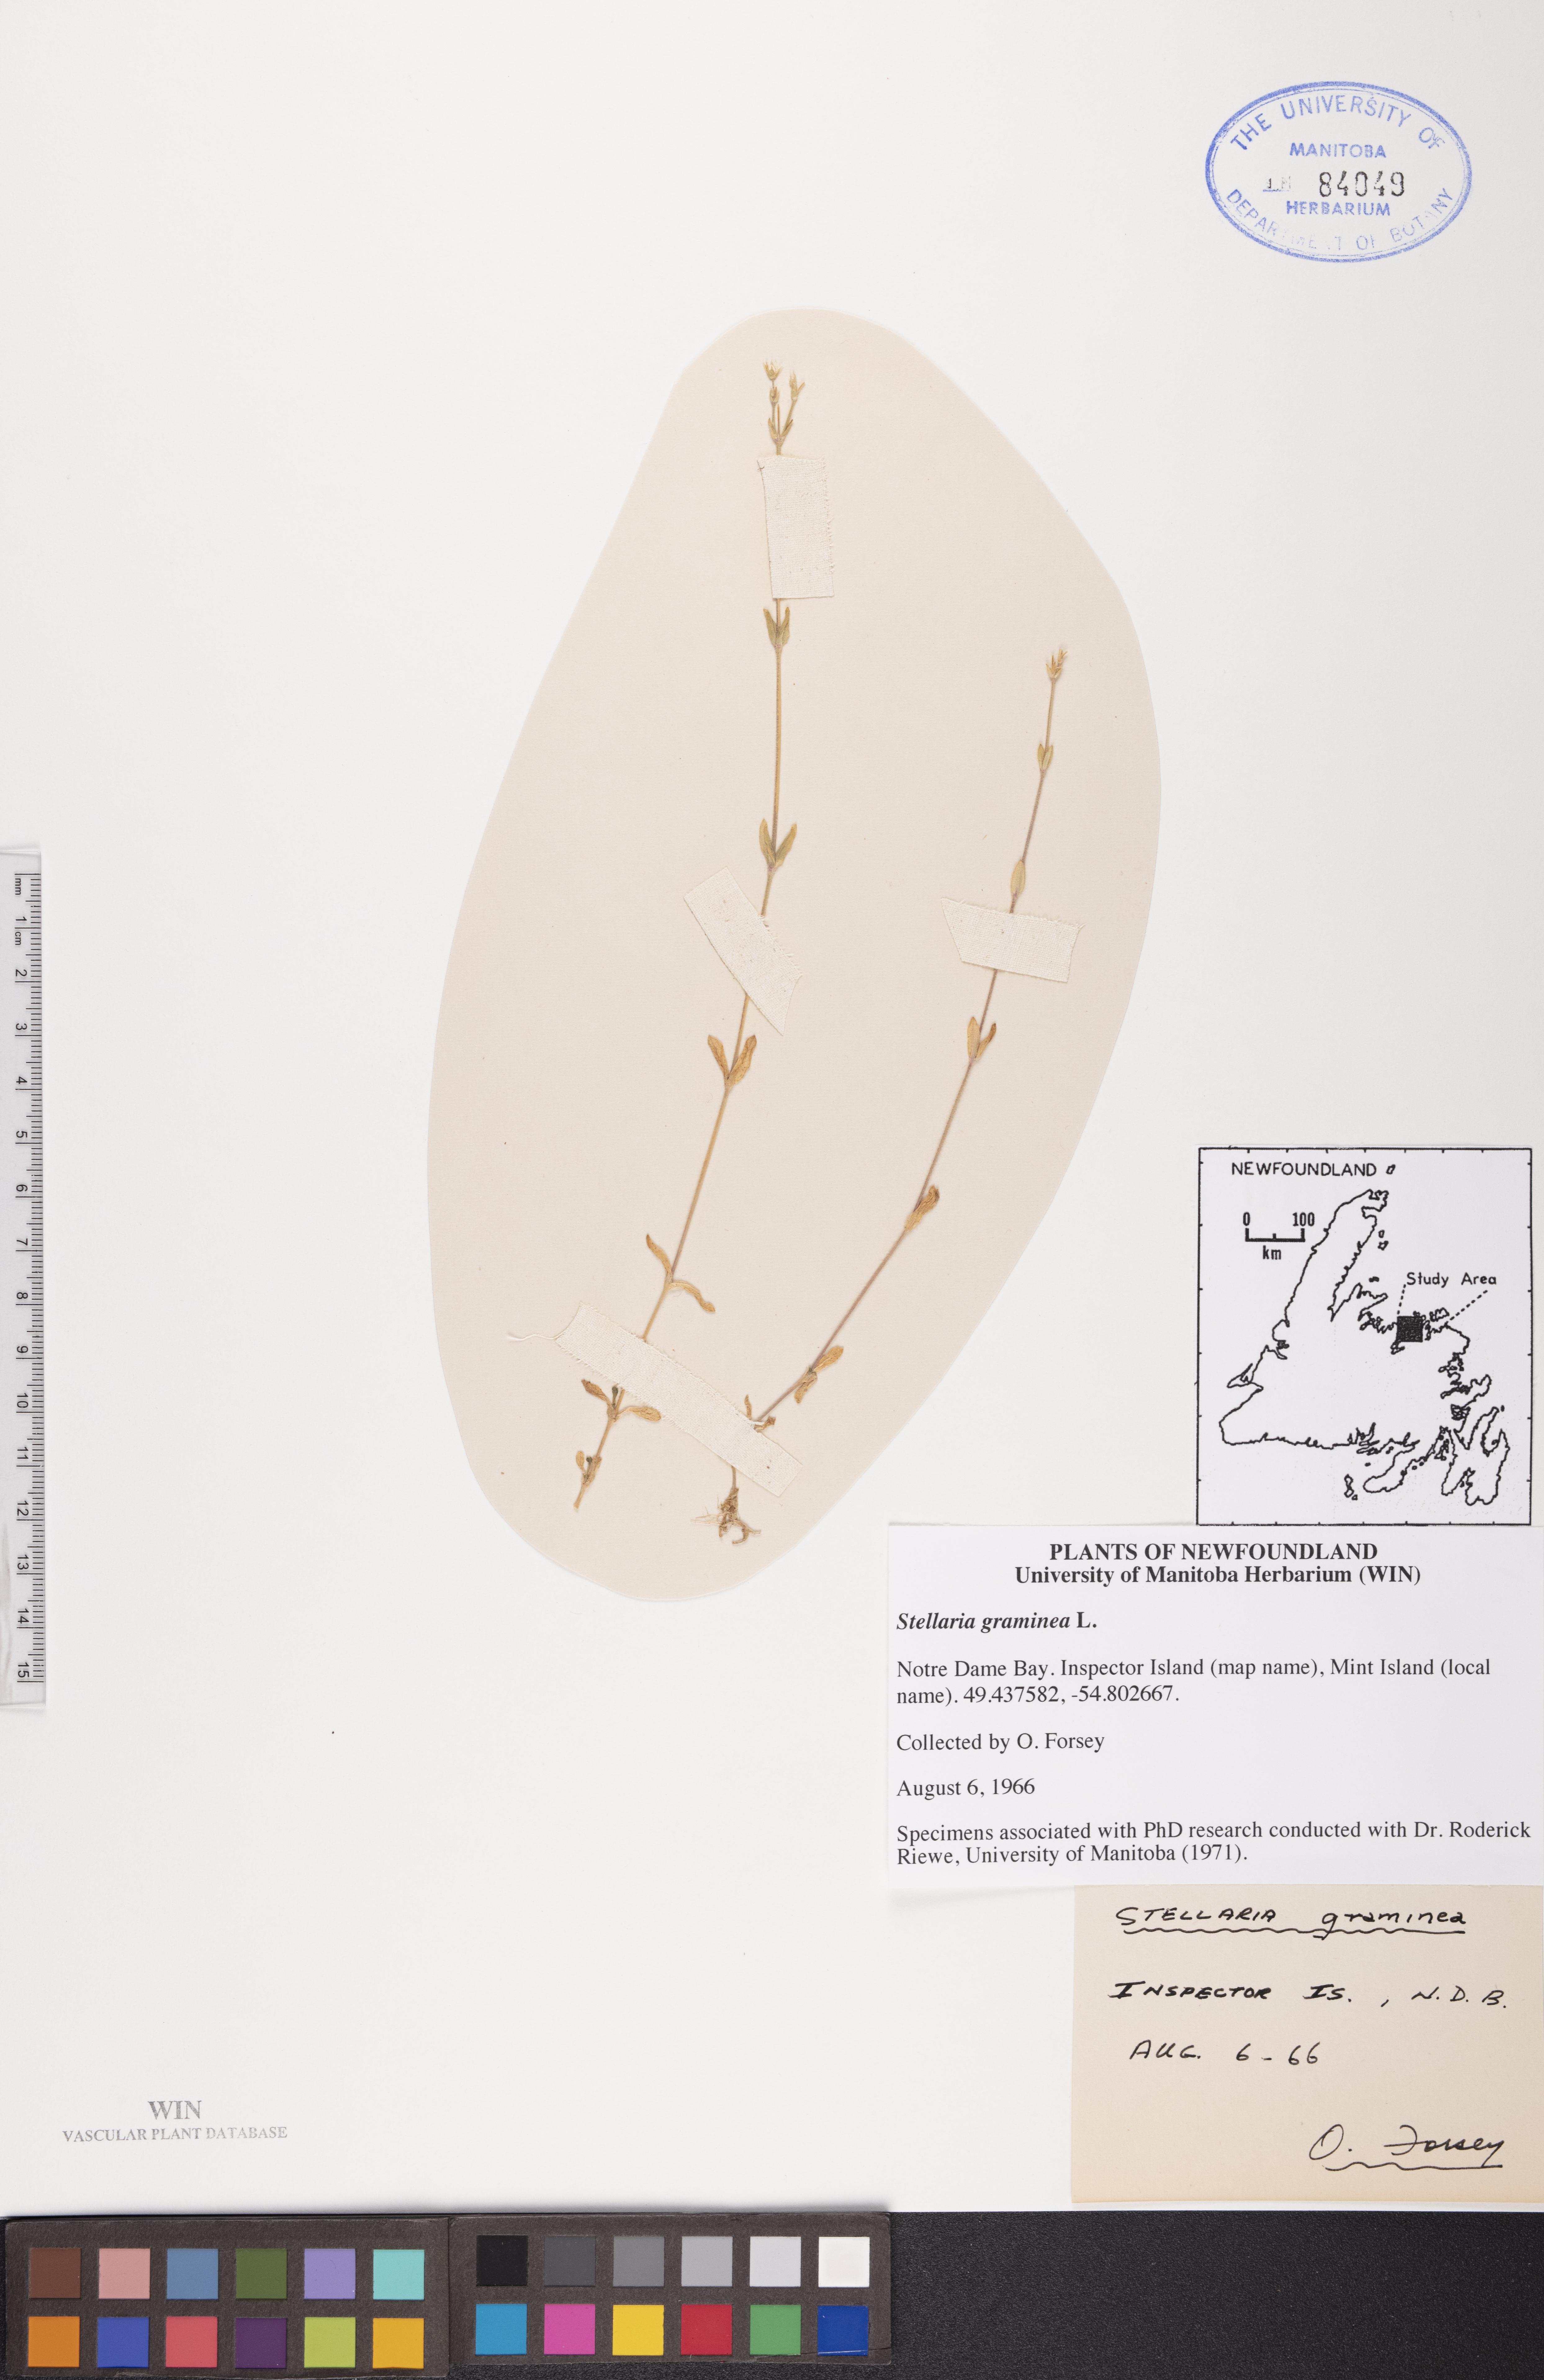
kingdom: Plantae
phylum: Tracheophyta
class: Magnoliopsida
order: Caryophyllales
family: Caryophyllaceae
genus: Stellaria
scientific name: Stellaria graminea
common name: Grass-like starwort
